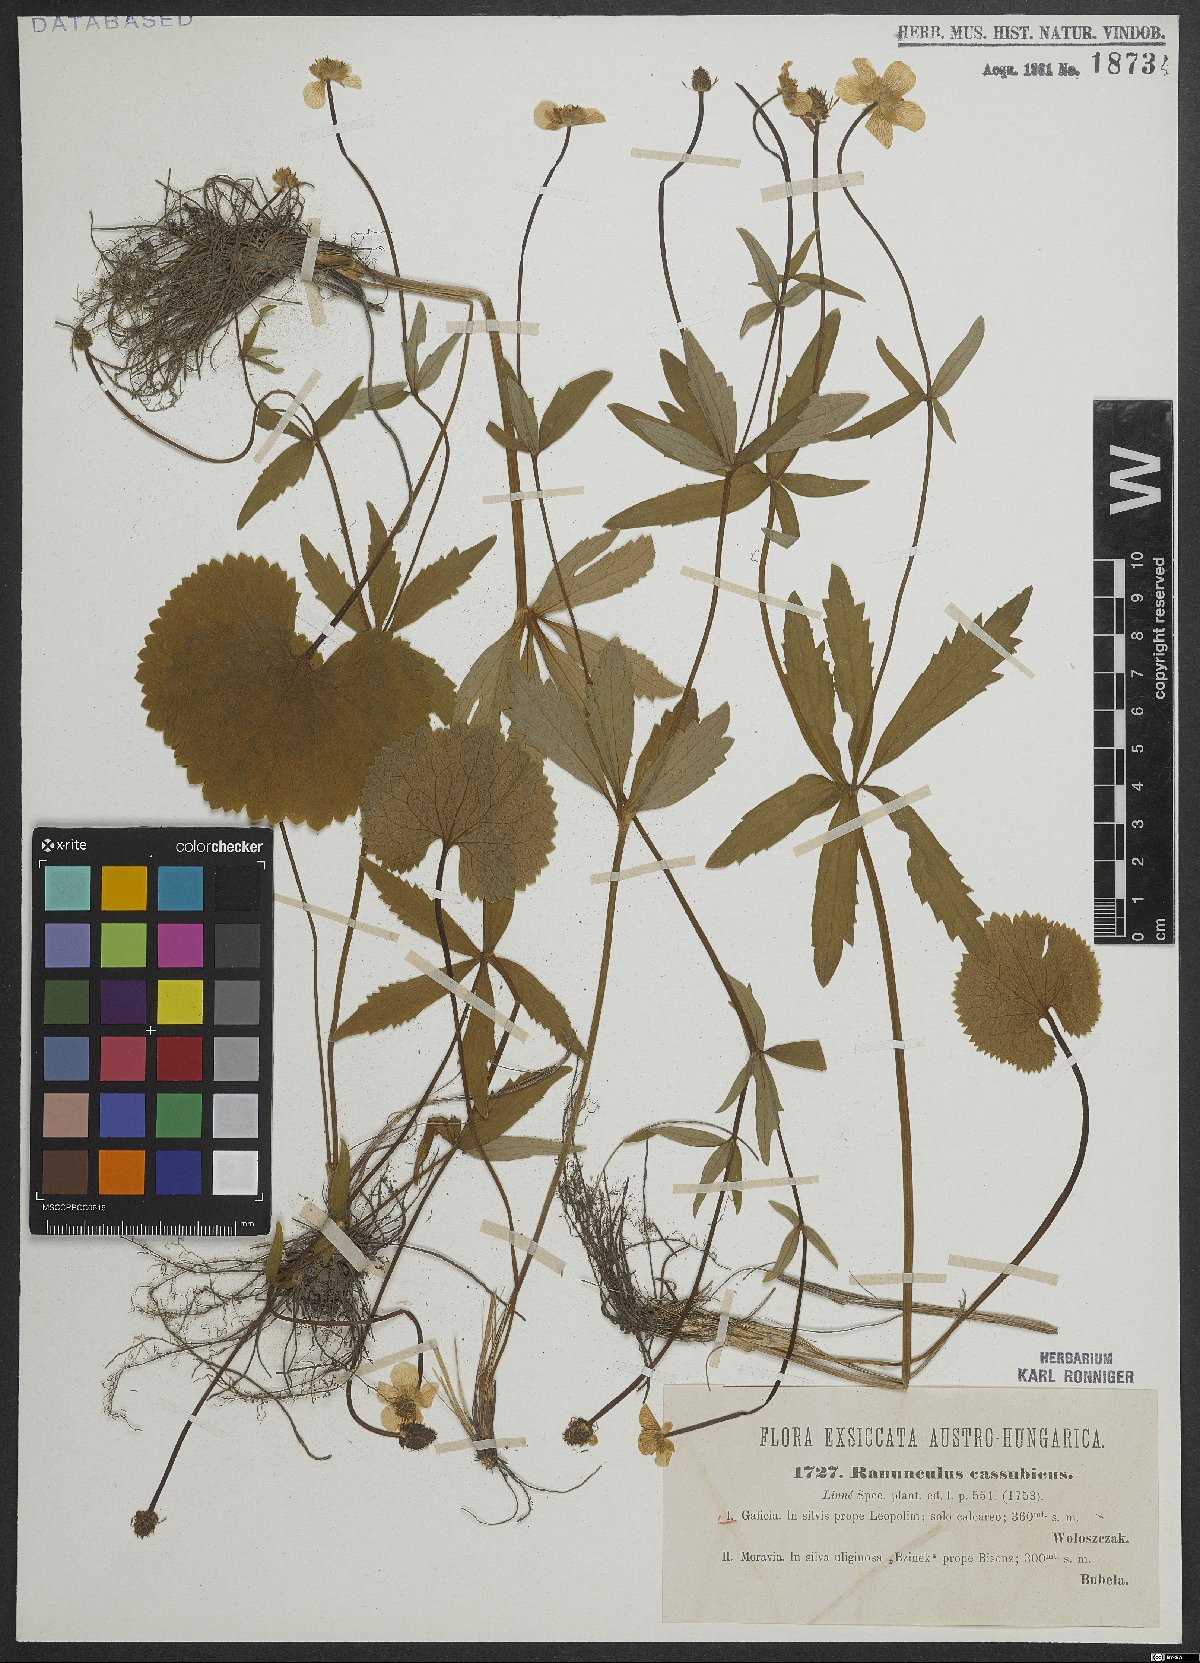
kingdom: Plantae
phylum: Tracheophyta
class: Magnoliopsida
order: Ranunculales
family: Ranunculaceae
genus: Ranunculus
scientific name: Ranunculus cassubicus
